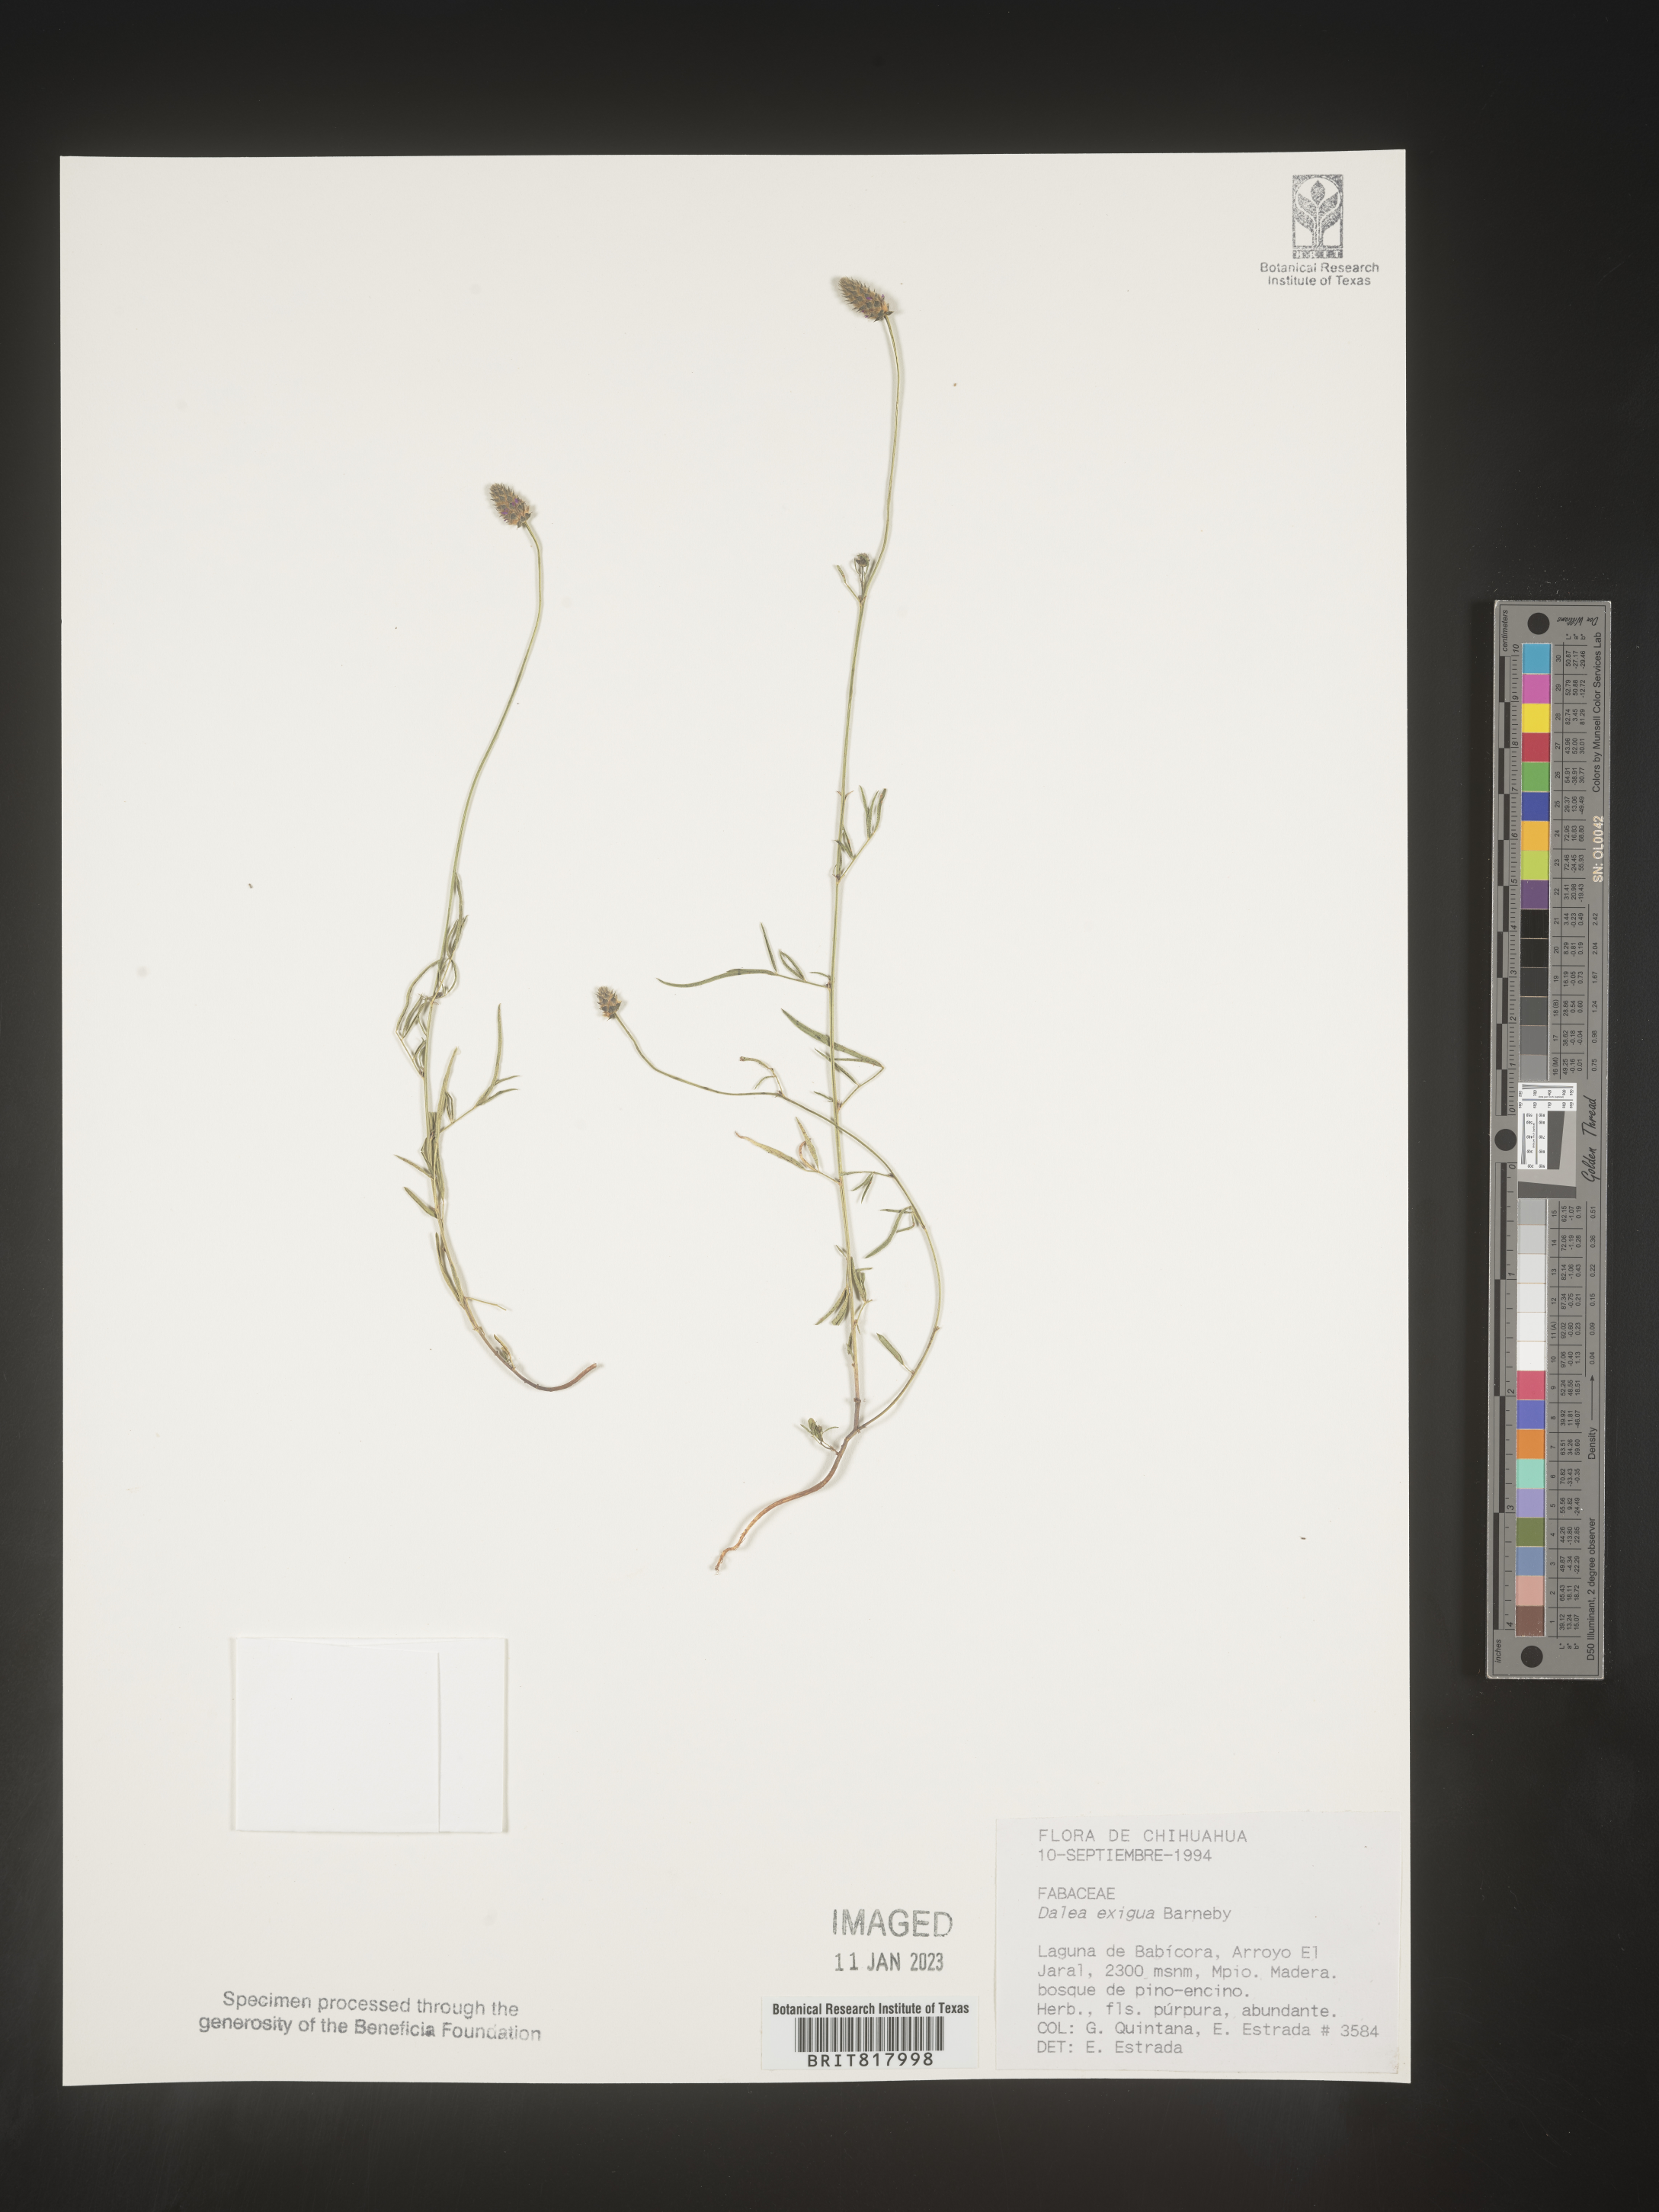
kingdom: Plantae
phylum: Tracheophyta
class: Magnoliopsida
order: Fabales
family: Fabaceae
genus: Dalea
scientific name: Dalea
